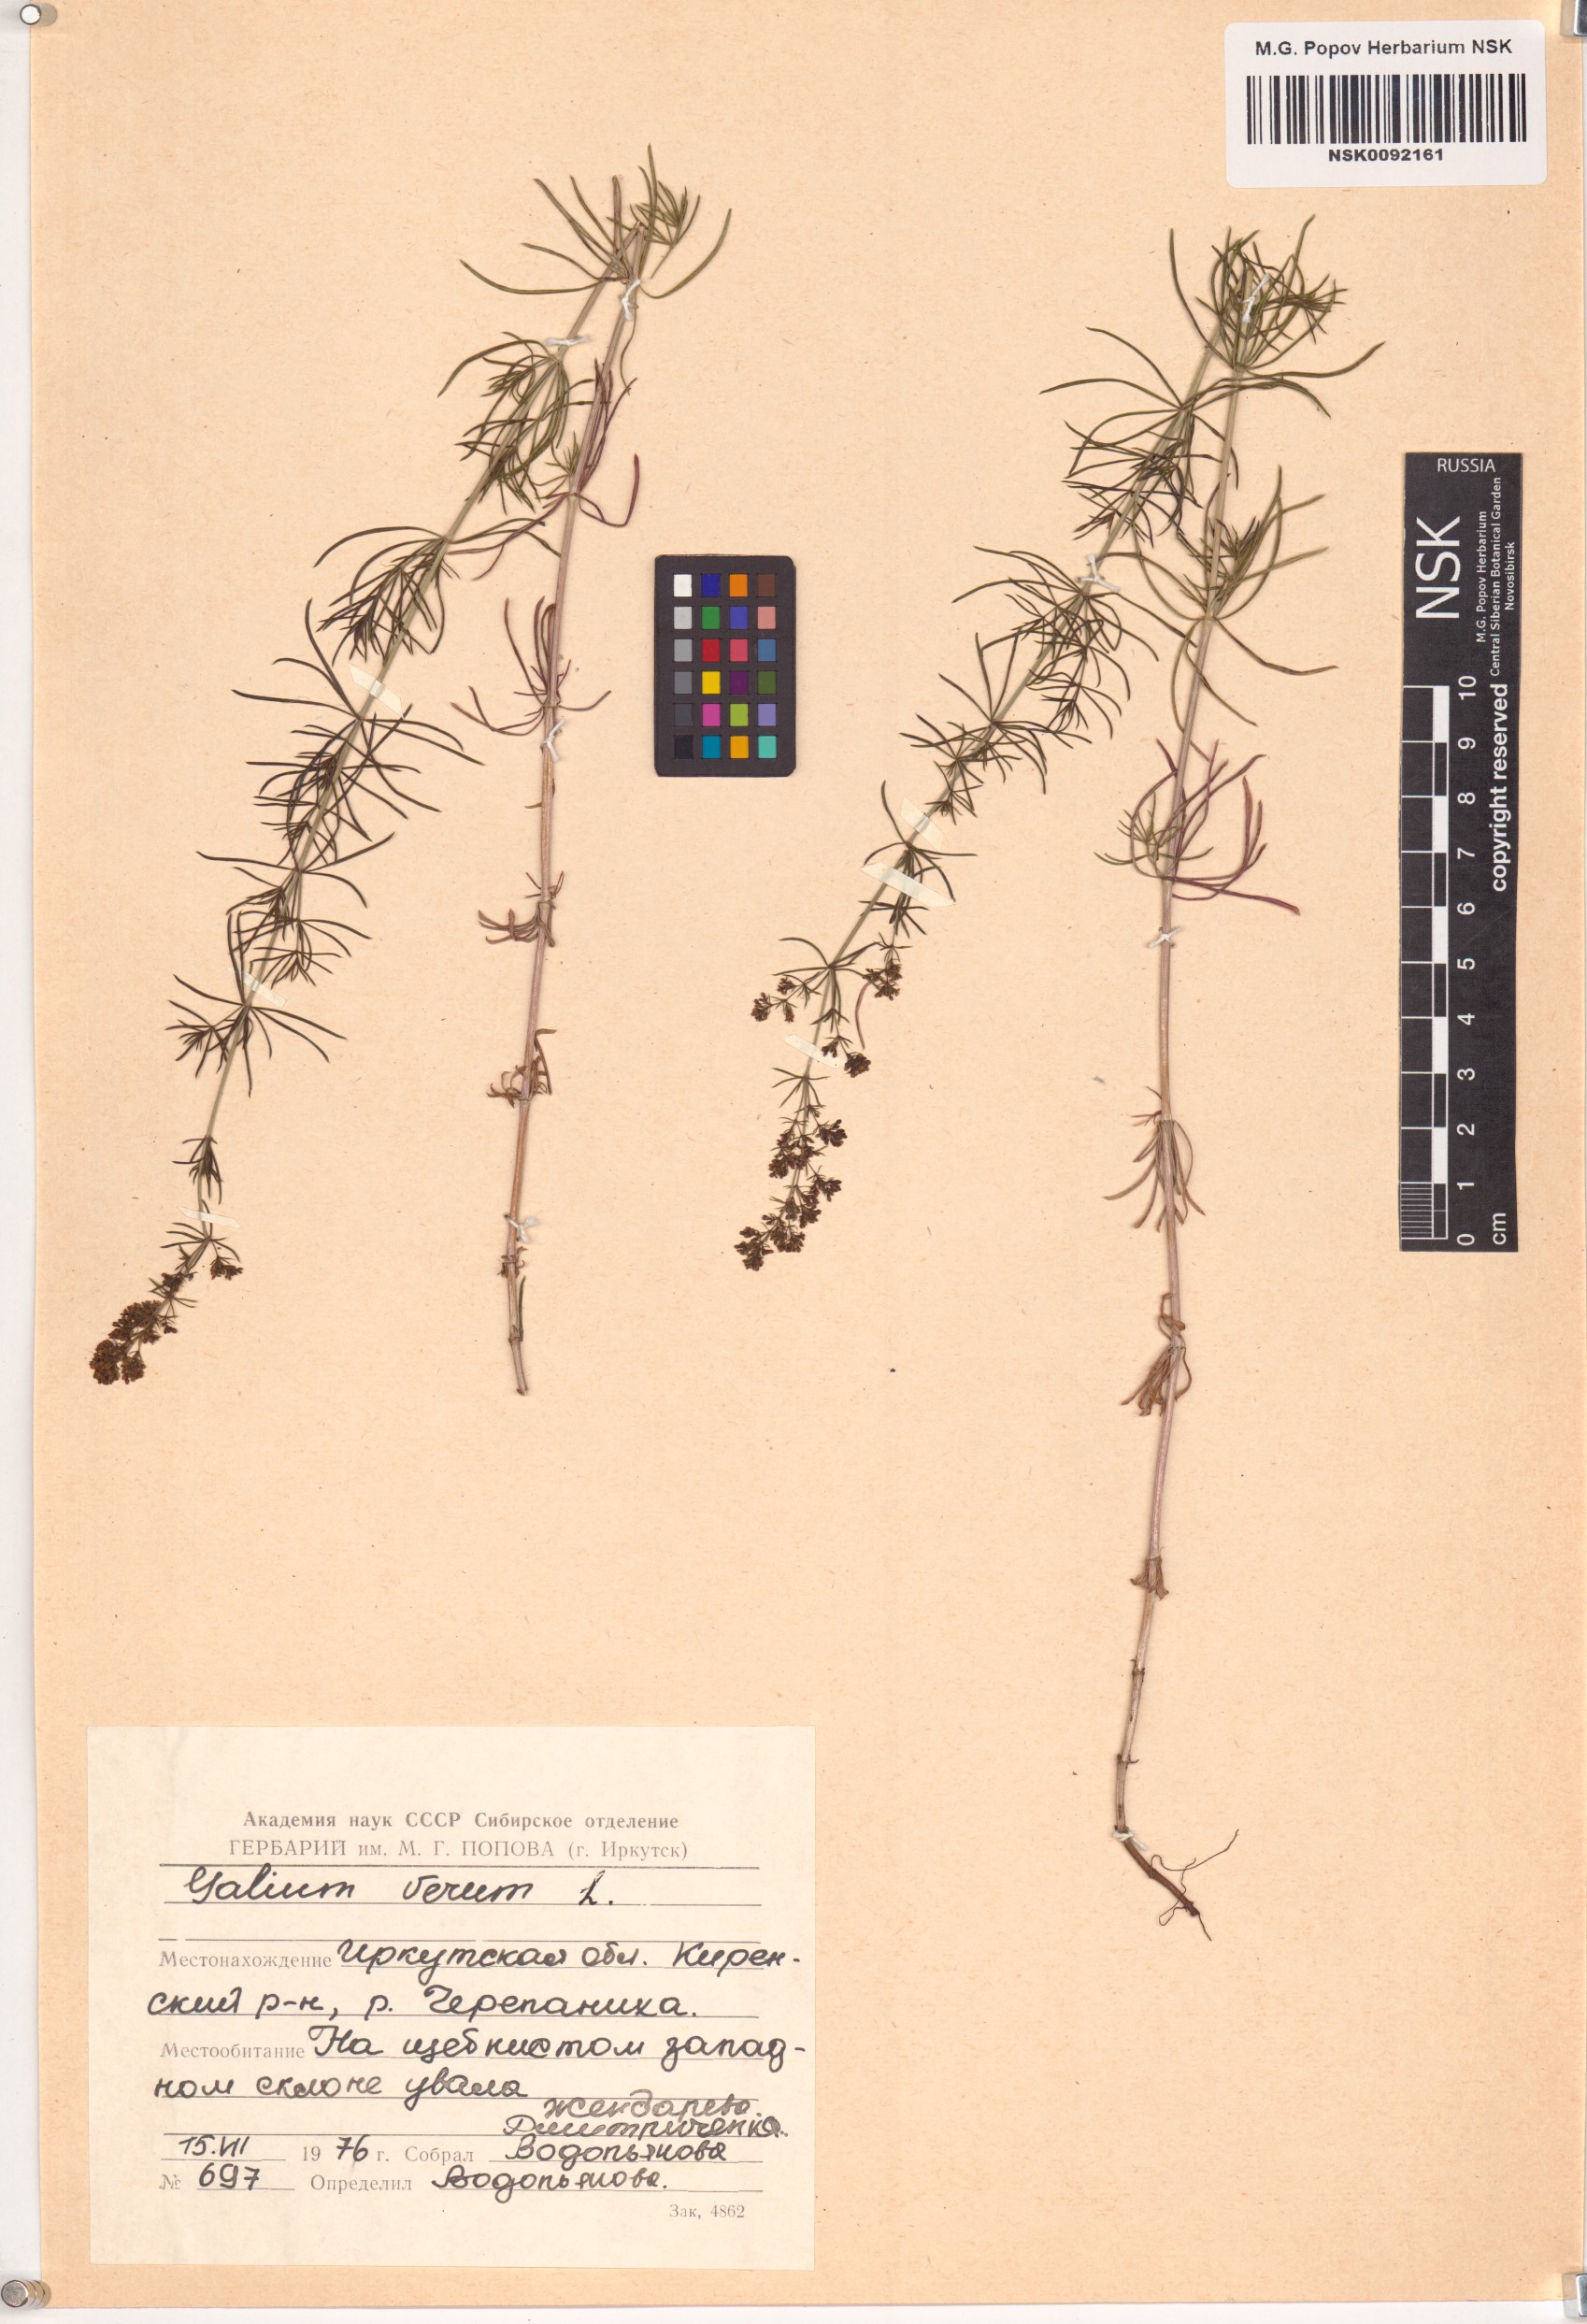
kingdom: Plantae
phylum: Tracheophyta
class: Magnoliopsida
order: Gentianales
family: Rubiaceae
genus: Galium
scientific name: Galium verum
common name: Lady's bedstraw
